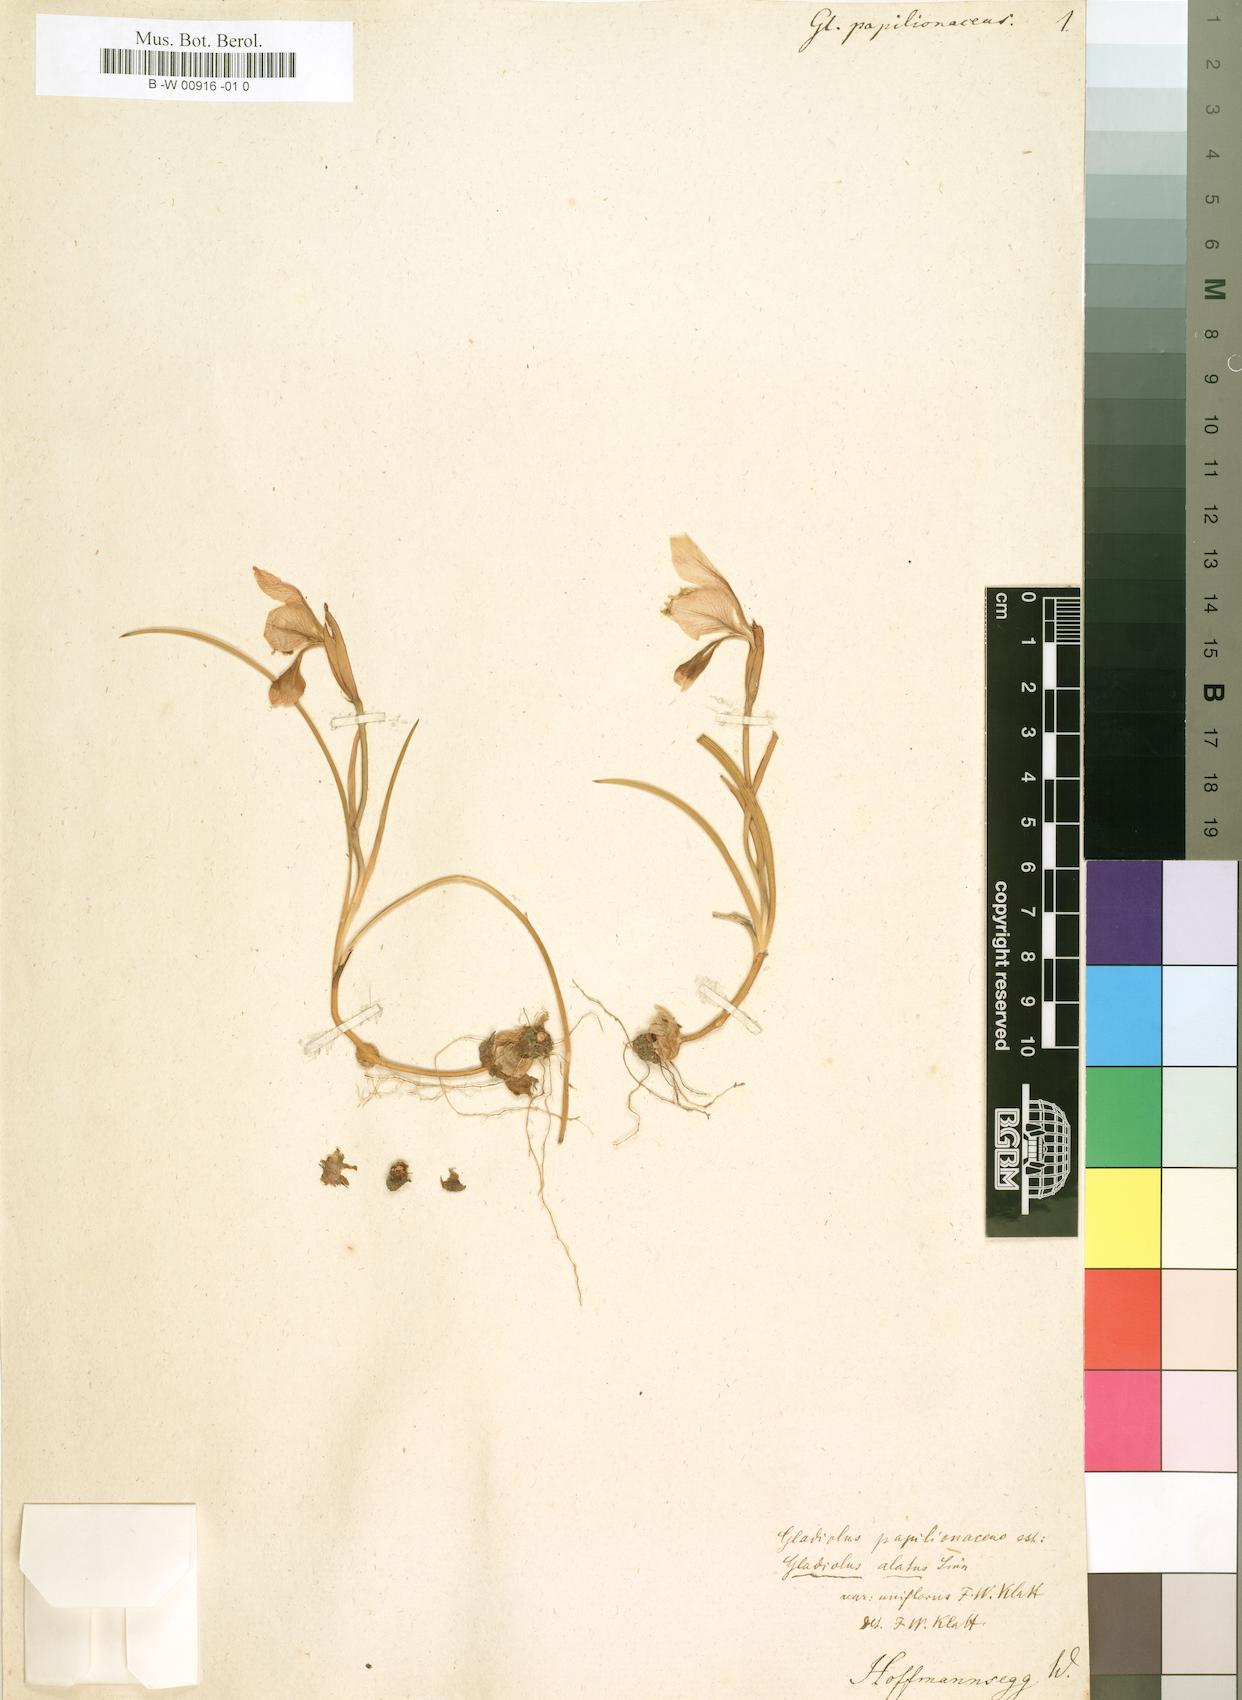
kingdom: Plantae
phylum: Tracheophyta
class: Liliopsida
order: Asparagales
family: Iridaceae
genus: Gladiolus
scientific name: Gladiolus alatus
